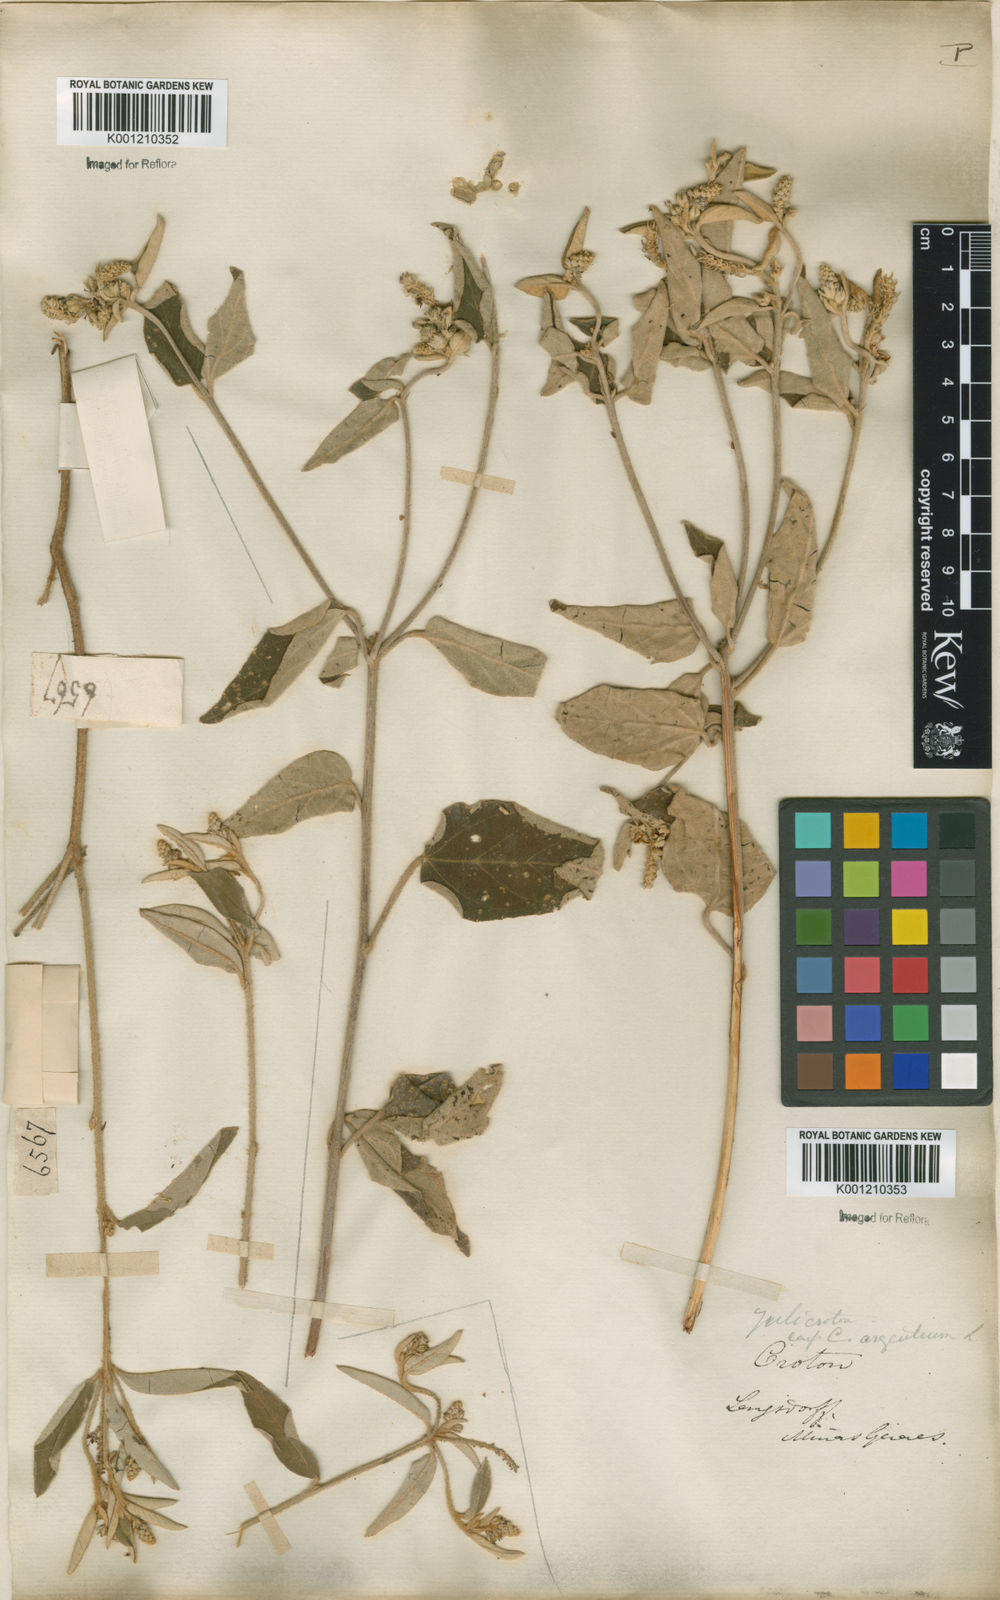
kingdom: Plantae
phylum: Tracheophyta
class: Magnoliopsida
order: Malpighiales
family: Euphorbiaceae
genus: Croton
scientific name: Croton
